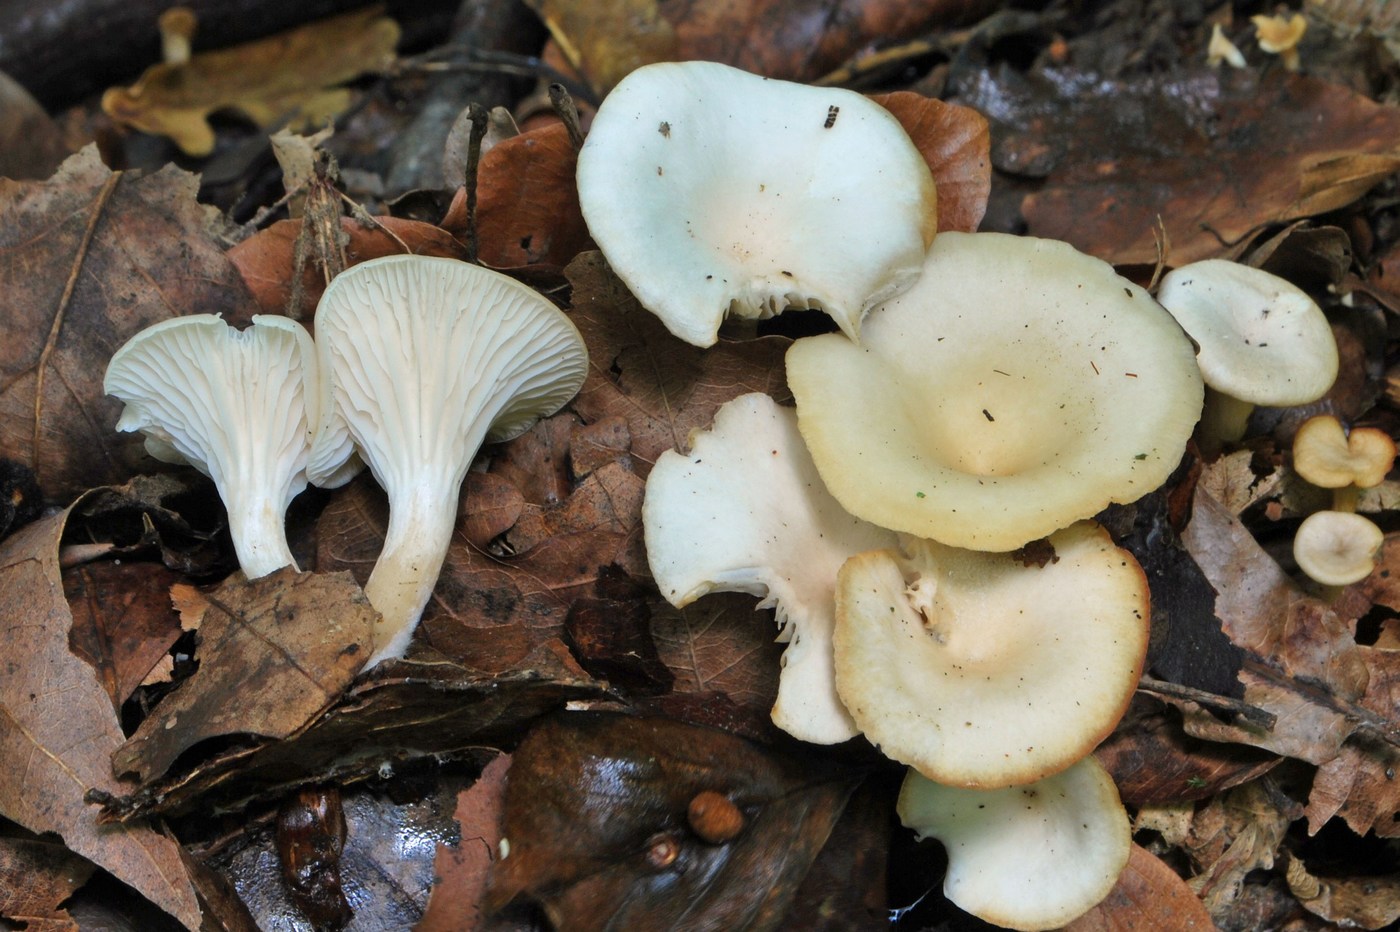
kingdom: Fungi
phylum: Basidiomycota
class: Agaricomycetes
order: Agaricales
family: Tricholomataceae
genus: Clitocybe
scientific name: Clitocybe phaeophthalma
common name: stinkende tragthat
